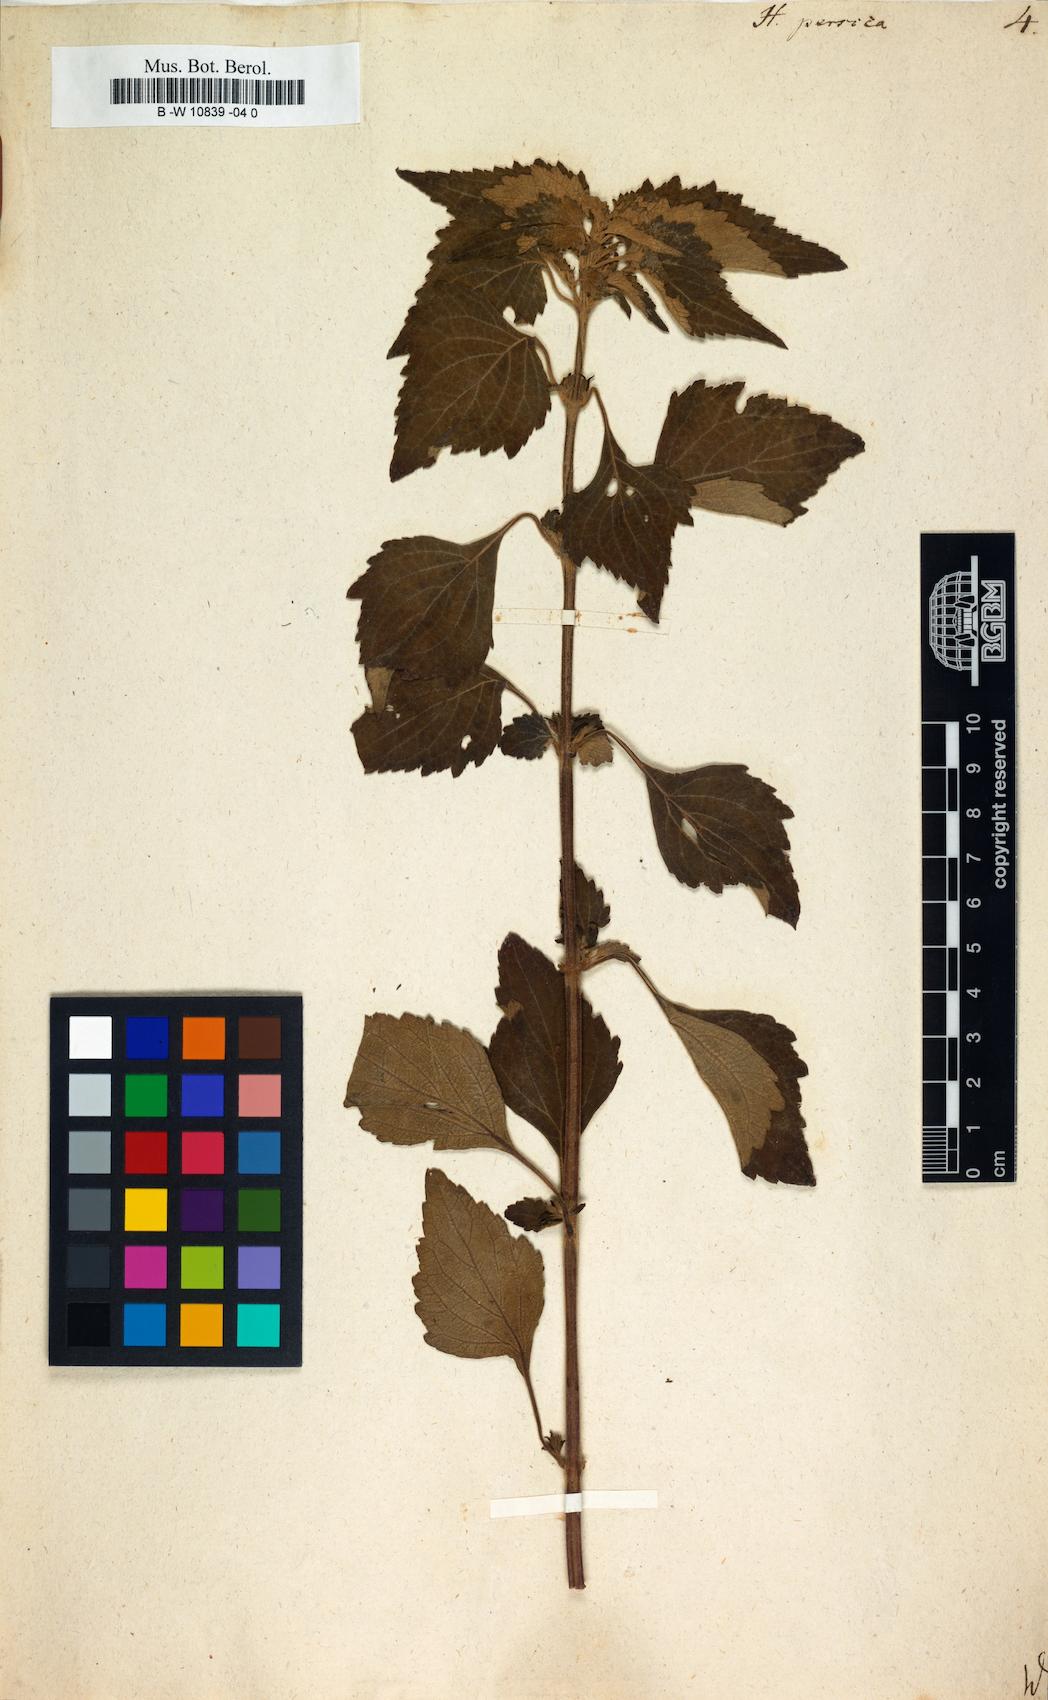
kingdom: Plantae
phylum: Tracheophyta
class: Magnoliopsida
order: Lamiales
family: Lamiaceae
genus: Mesosphaerum
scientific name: Mesosphaerum pectinatum
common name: Comb hyptis
